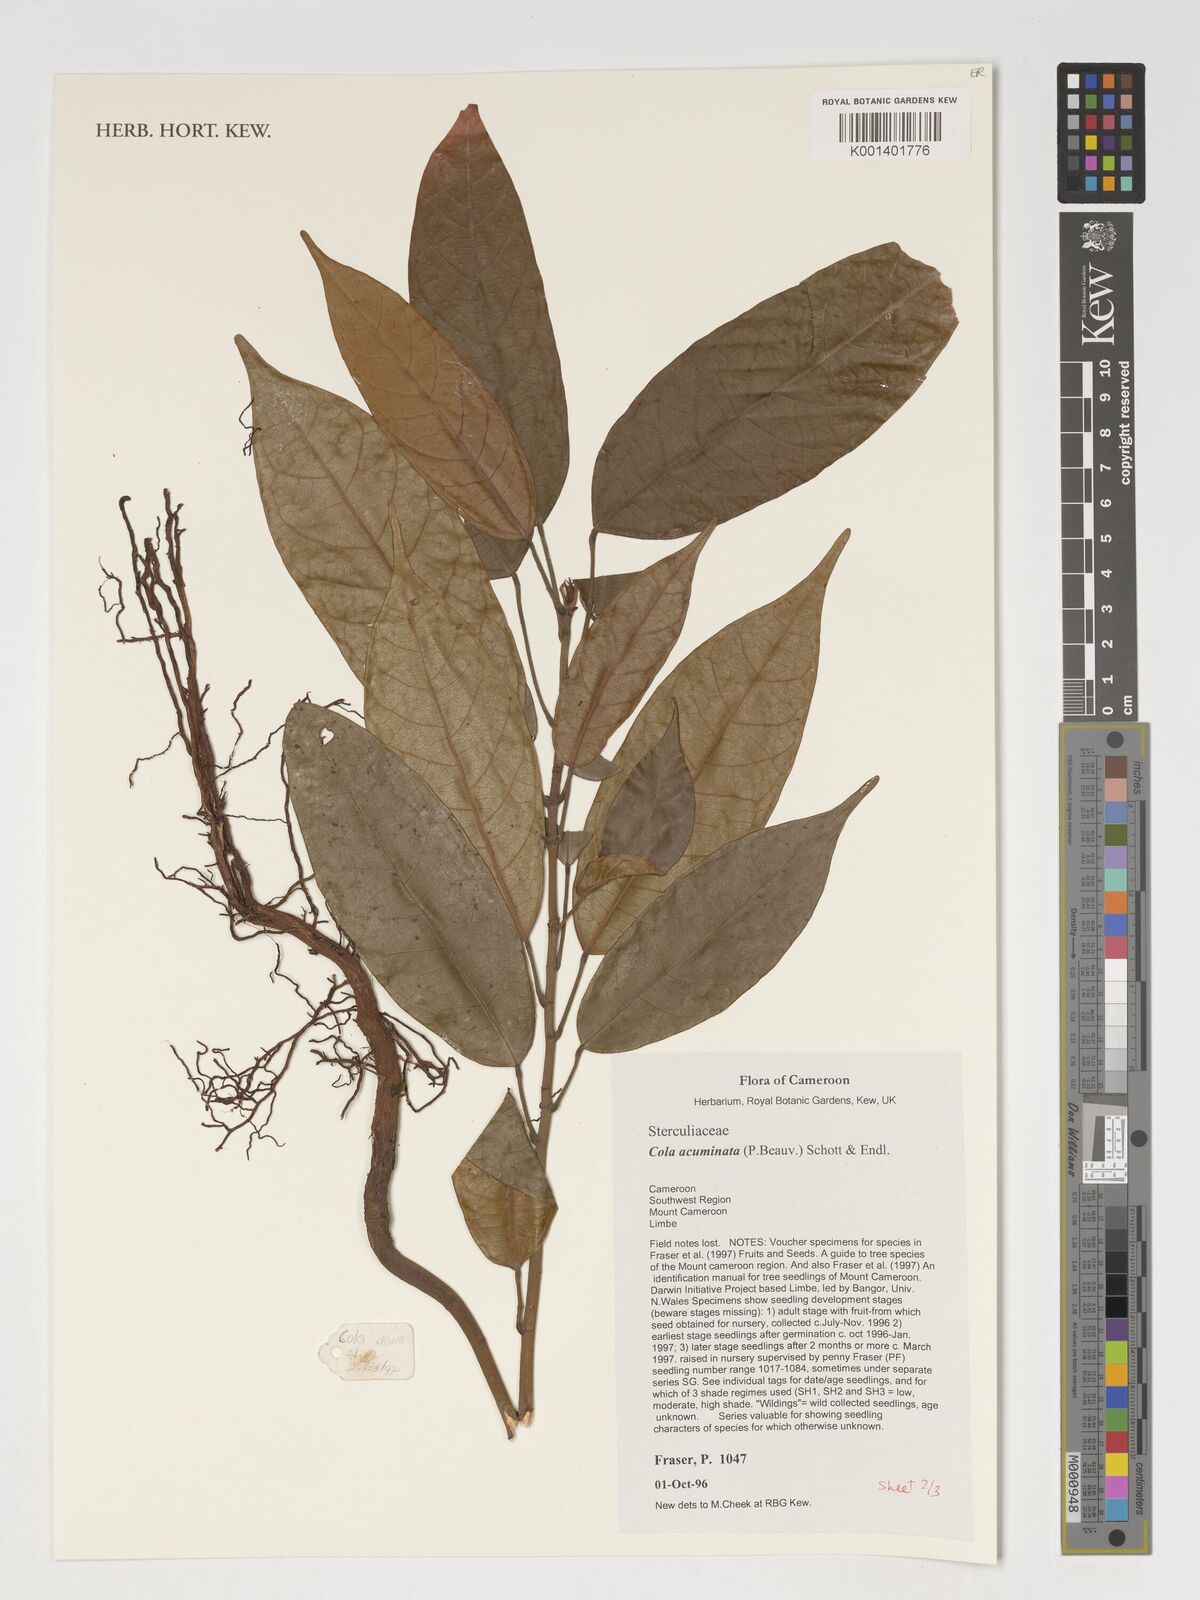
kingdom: Plantae
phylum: Tracheophyta
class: Magnoliopsida
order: Malvales
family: Malvaceae
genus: Cola
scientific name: Cola acuminata
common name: True kola
